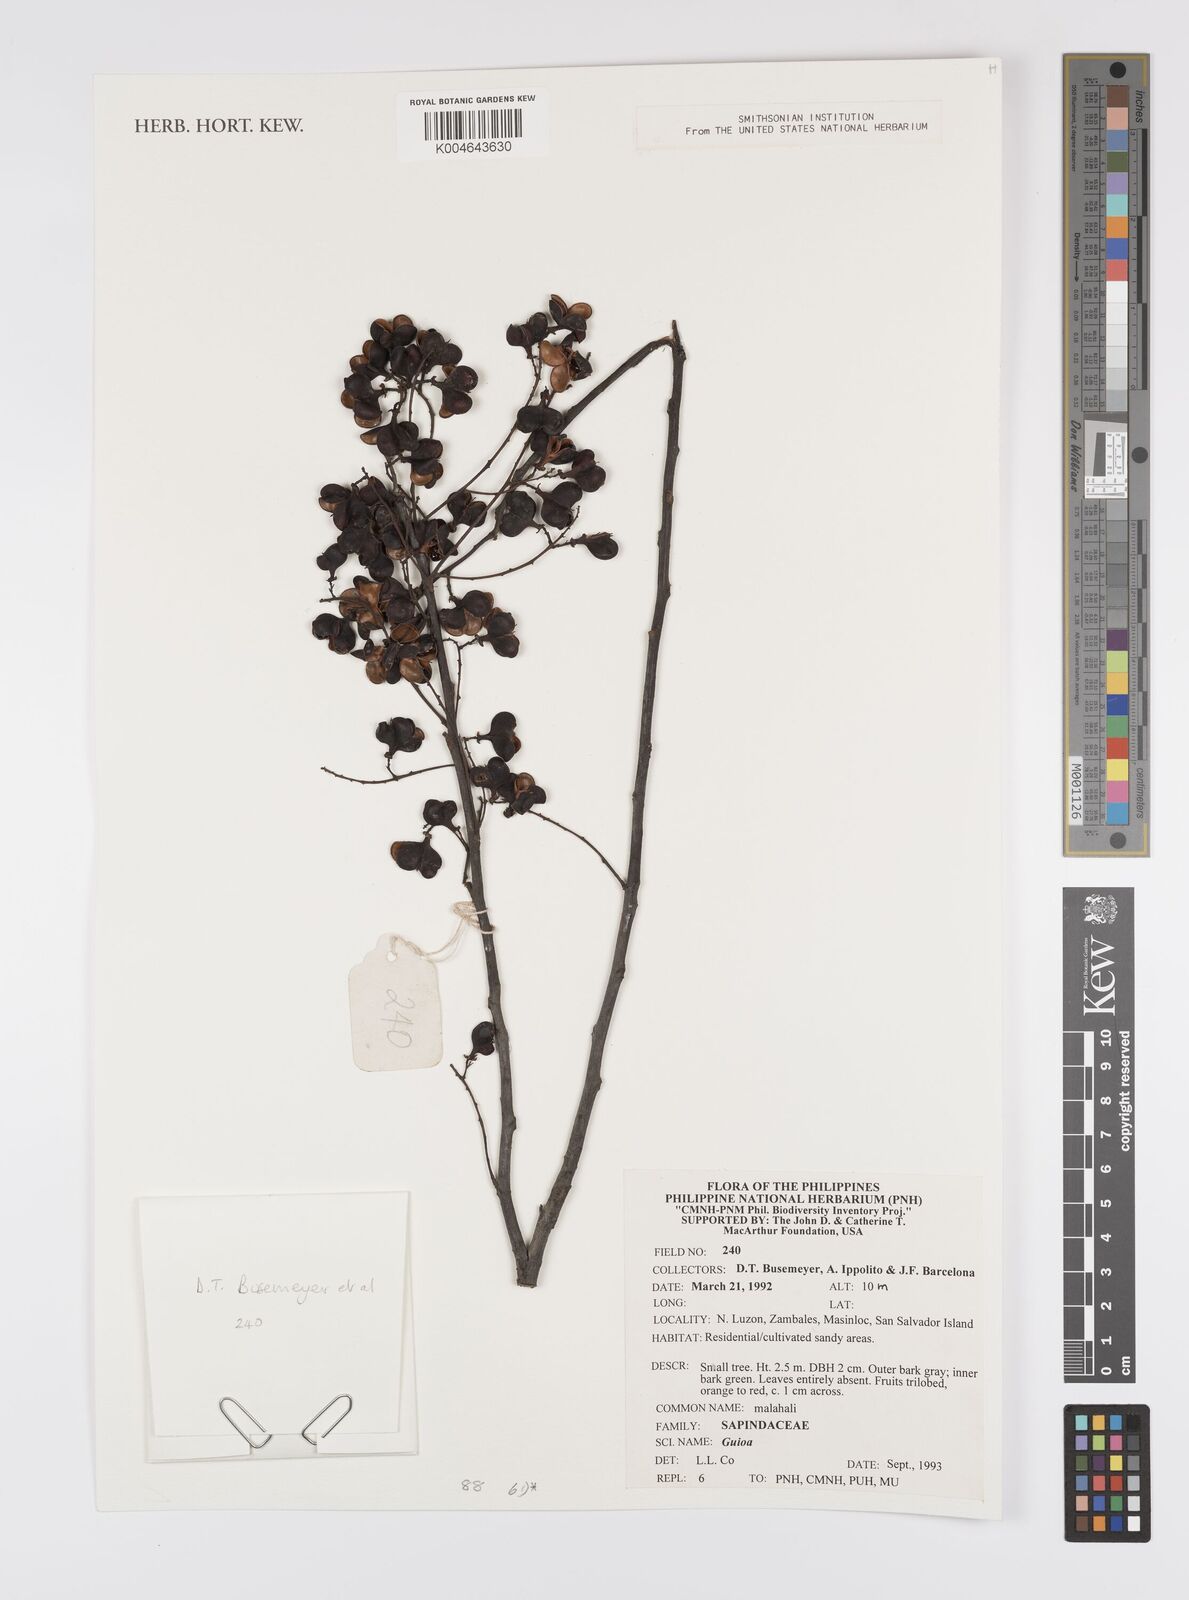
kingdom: Plantae
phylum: Tracheophyta
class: Magnoliopsida
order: Sapindales
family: Sapindaceae
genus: Guioa
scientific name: Guioa
